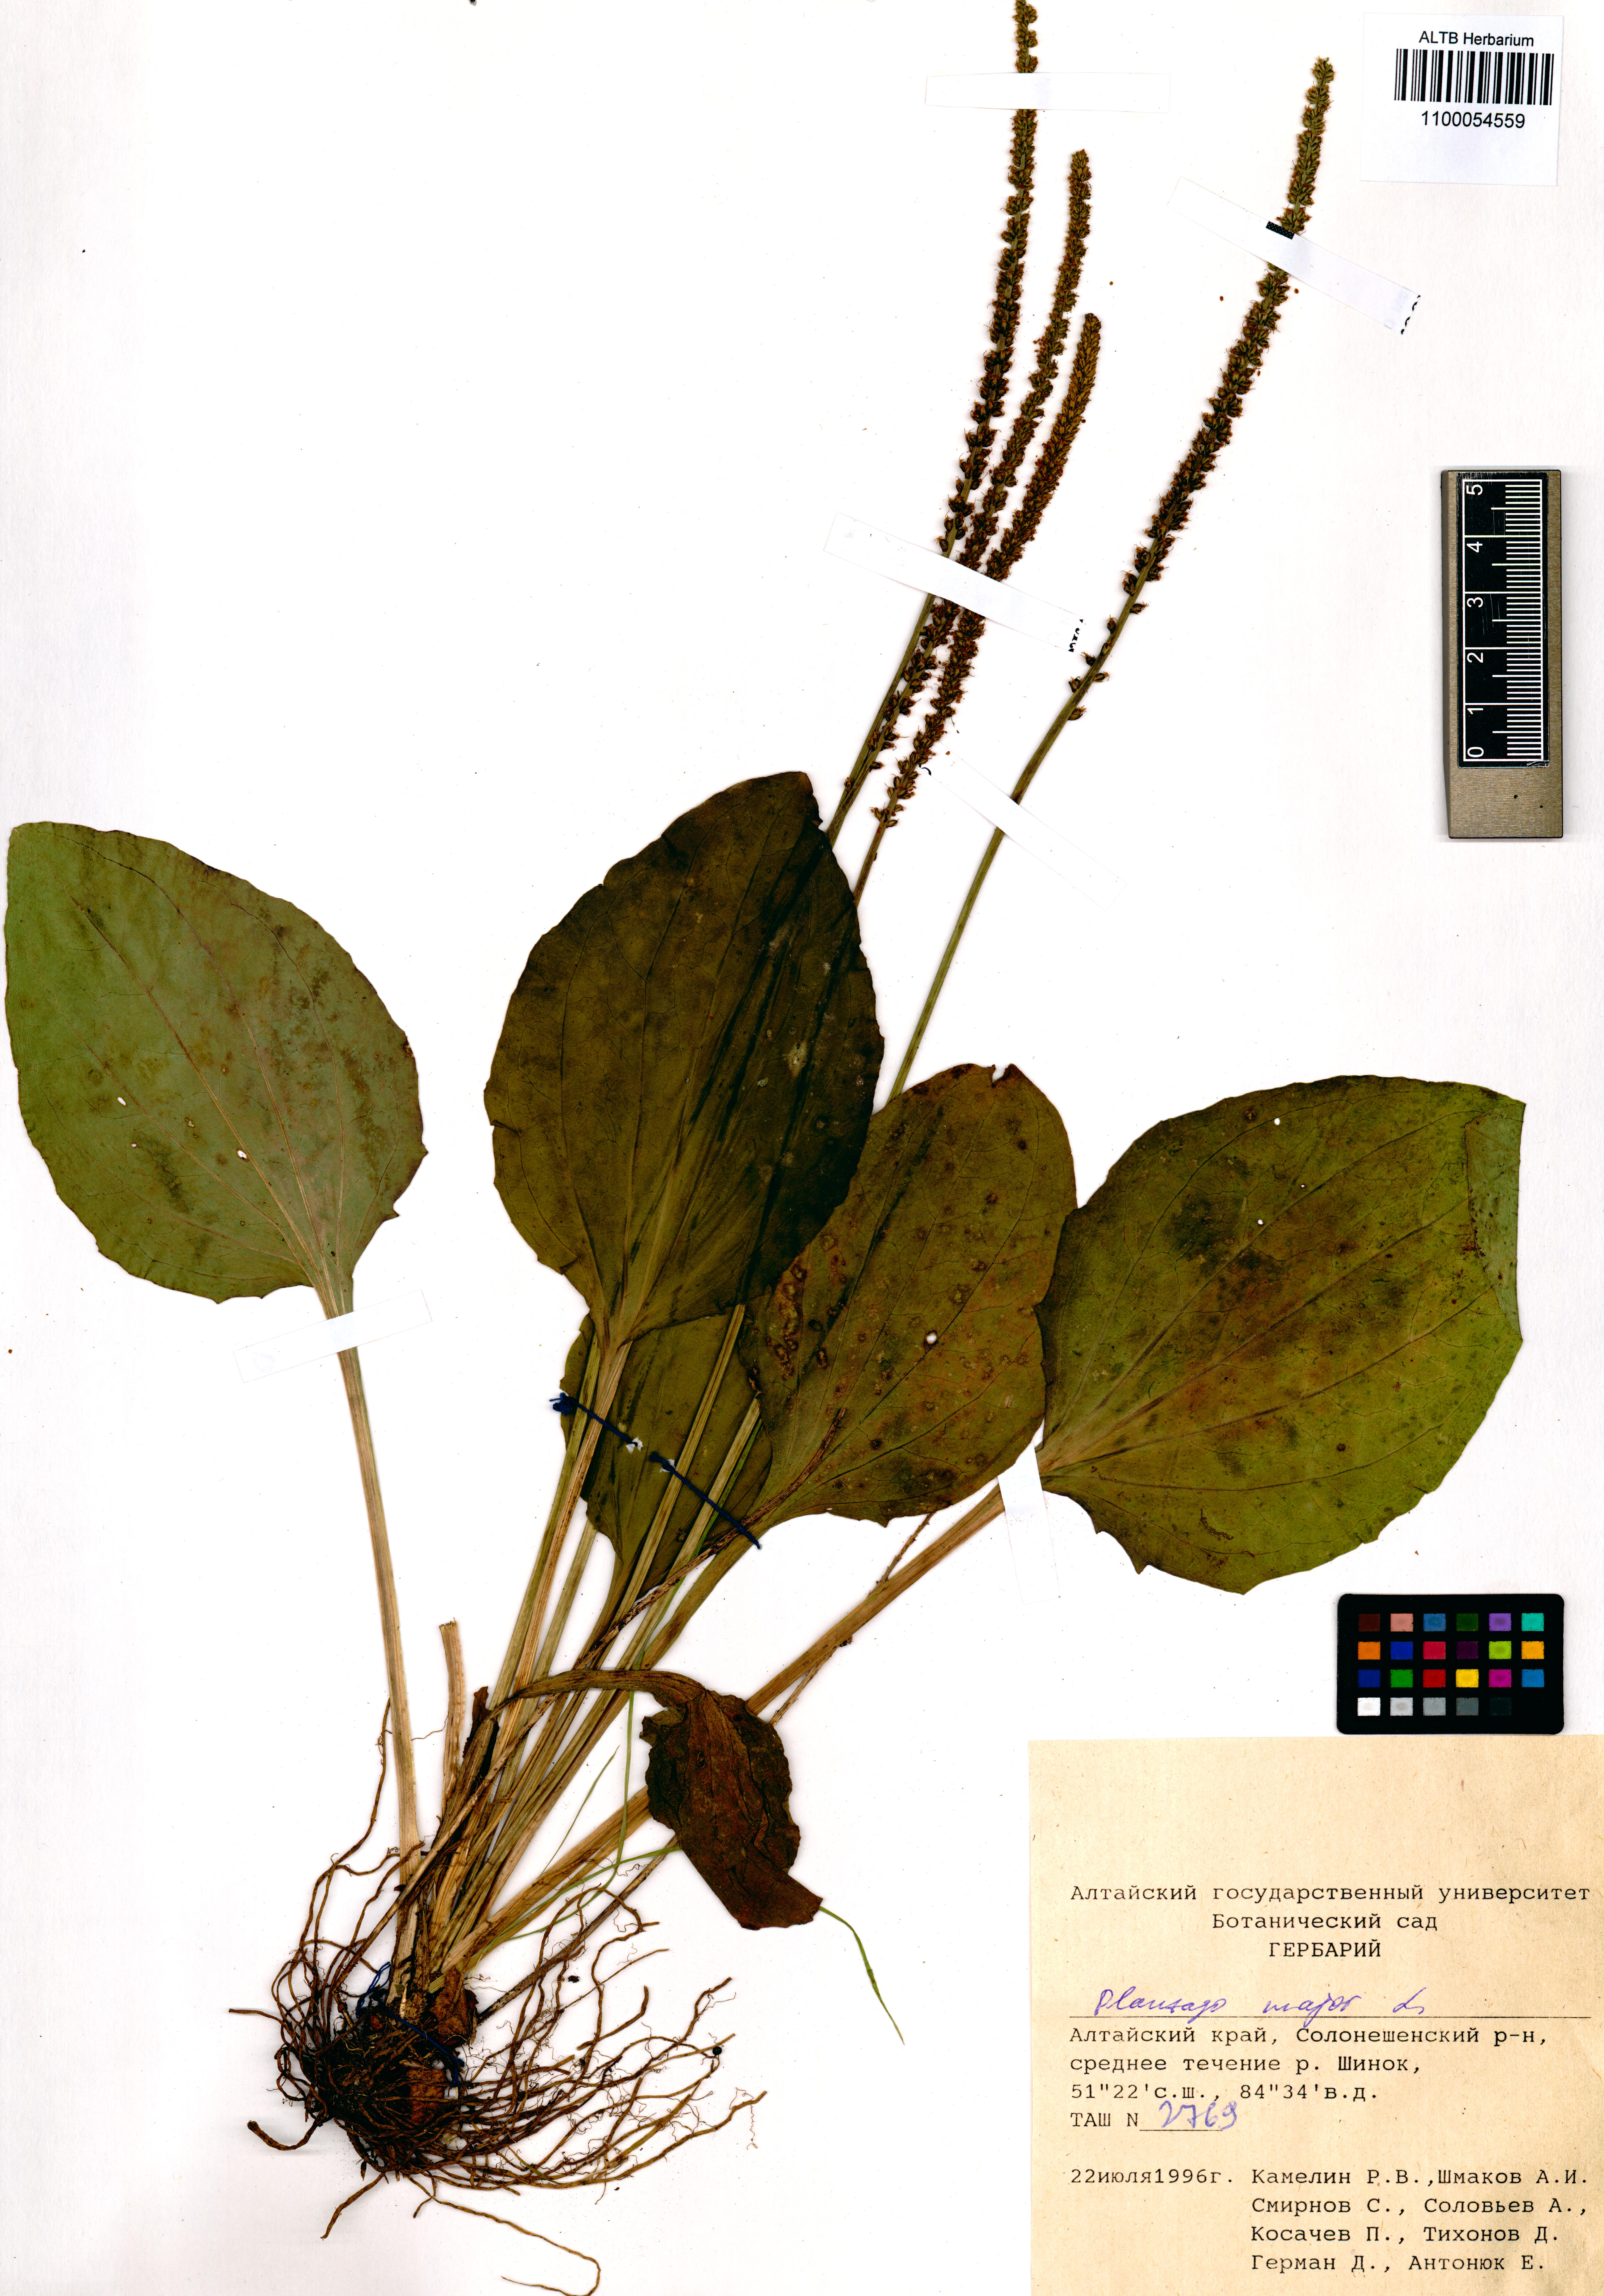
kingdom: Plantae
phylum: Tracheophyta
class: Magnoliopsida
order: Lamiales
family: Plantaginaceae
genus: Plantago
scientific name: Plantago major
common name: Common plantain
